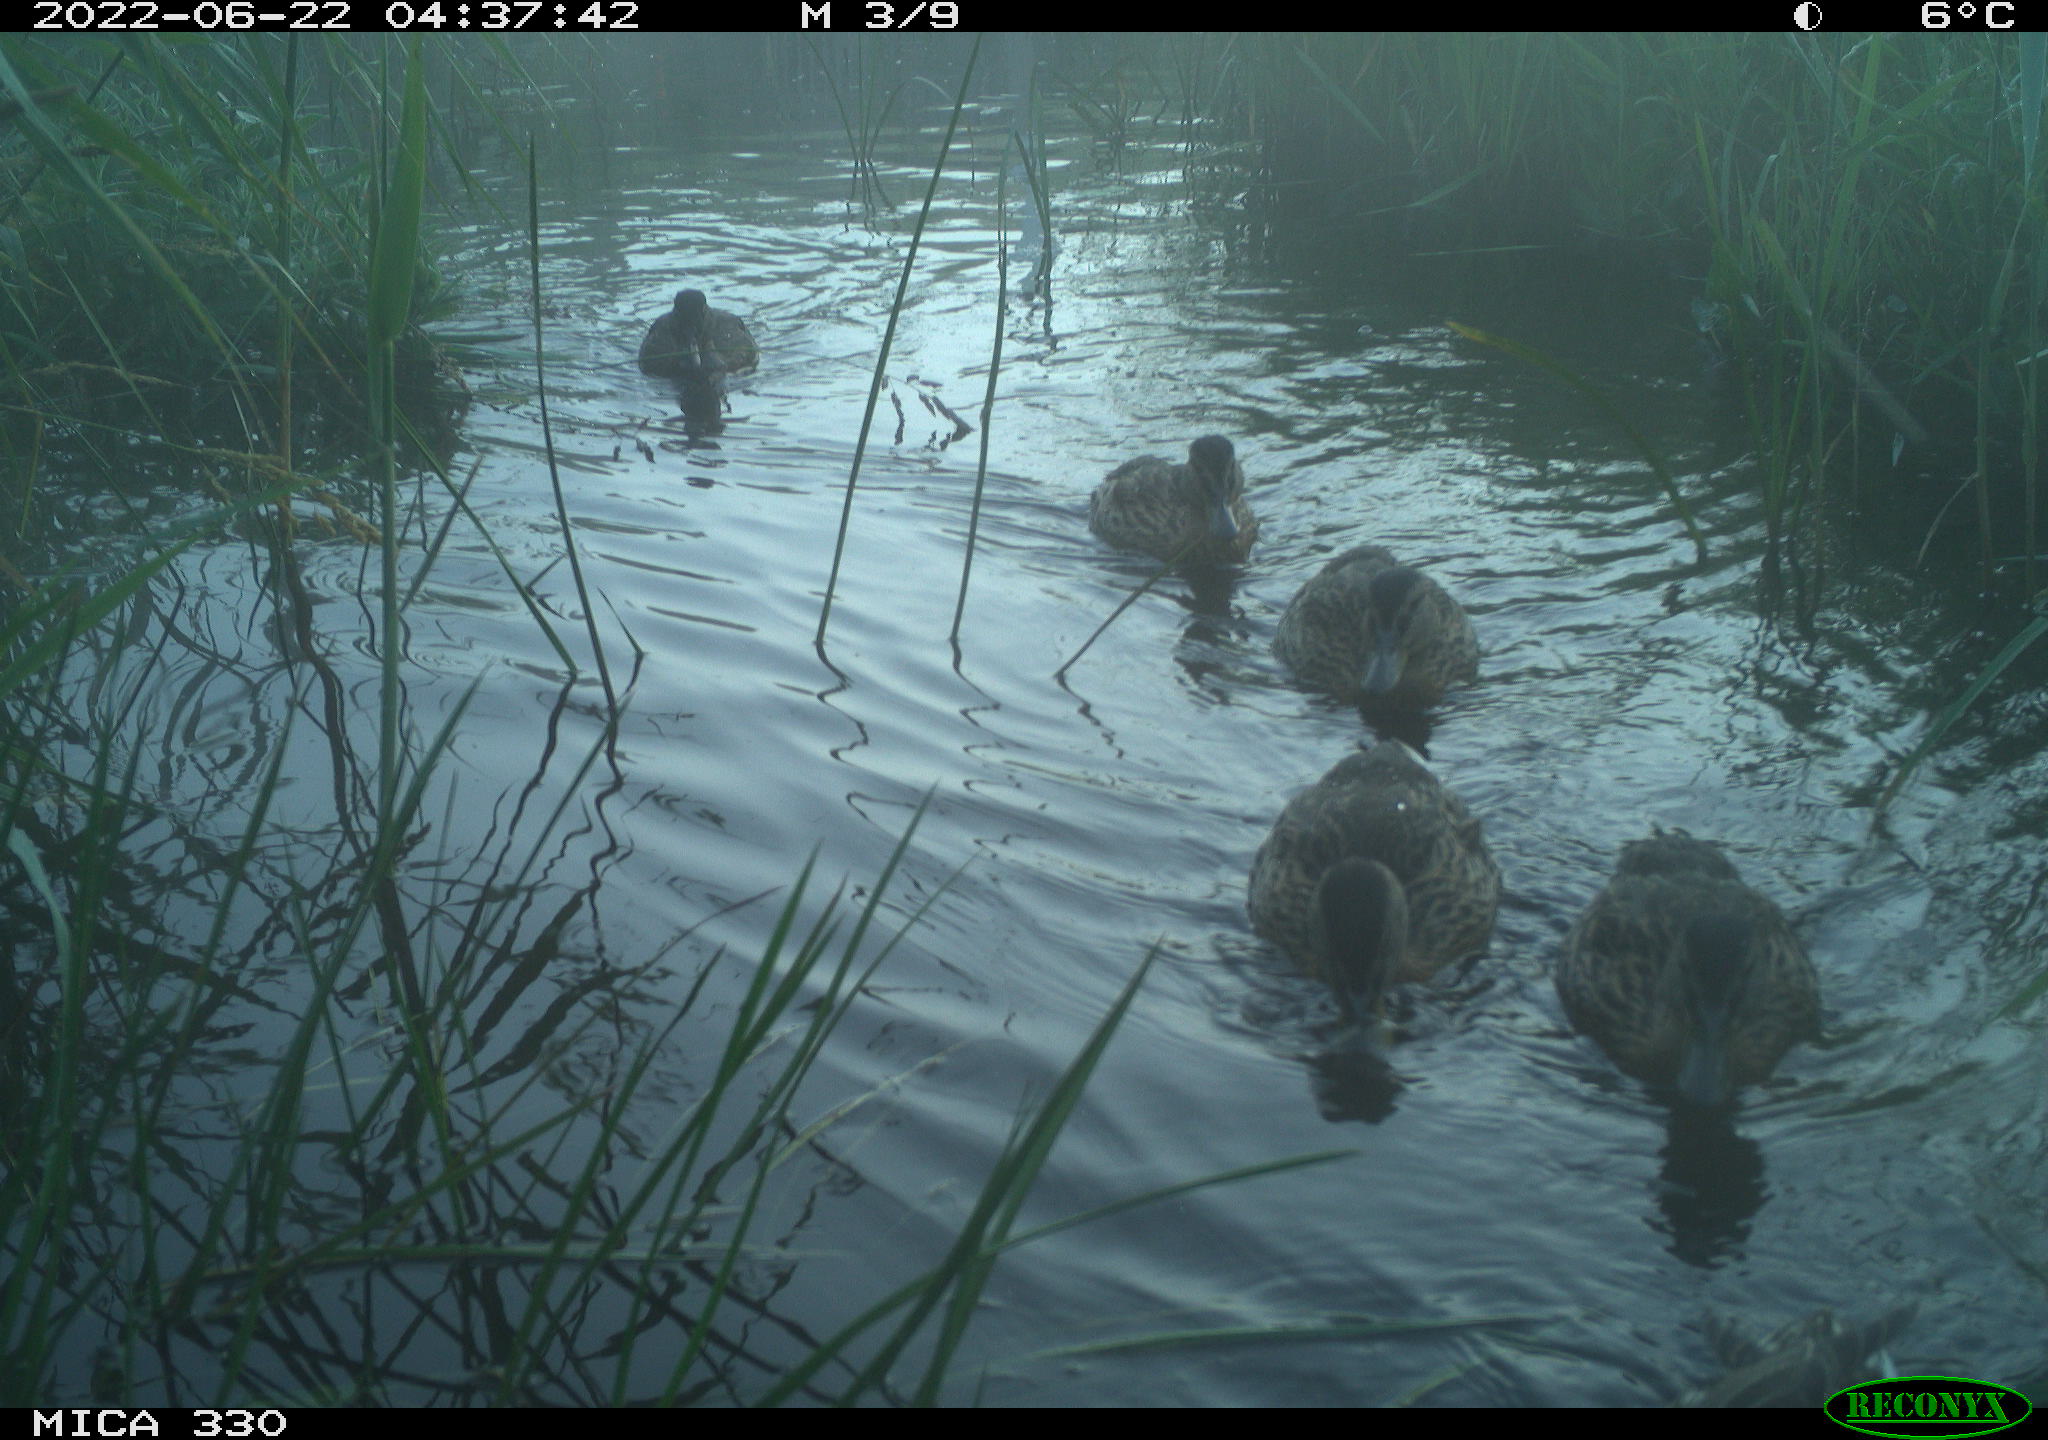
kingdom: Animalia
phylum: Chordata
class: Aves
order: Anseriformes
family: Anatidae
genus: Mareca
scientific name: Mareca strepera
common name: Gadwall
